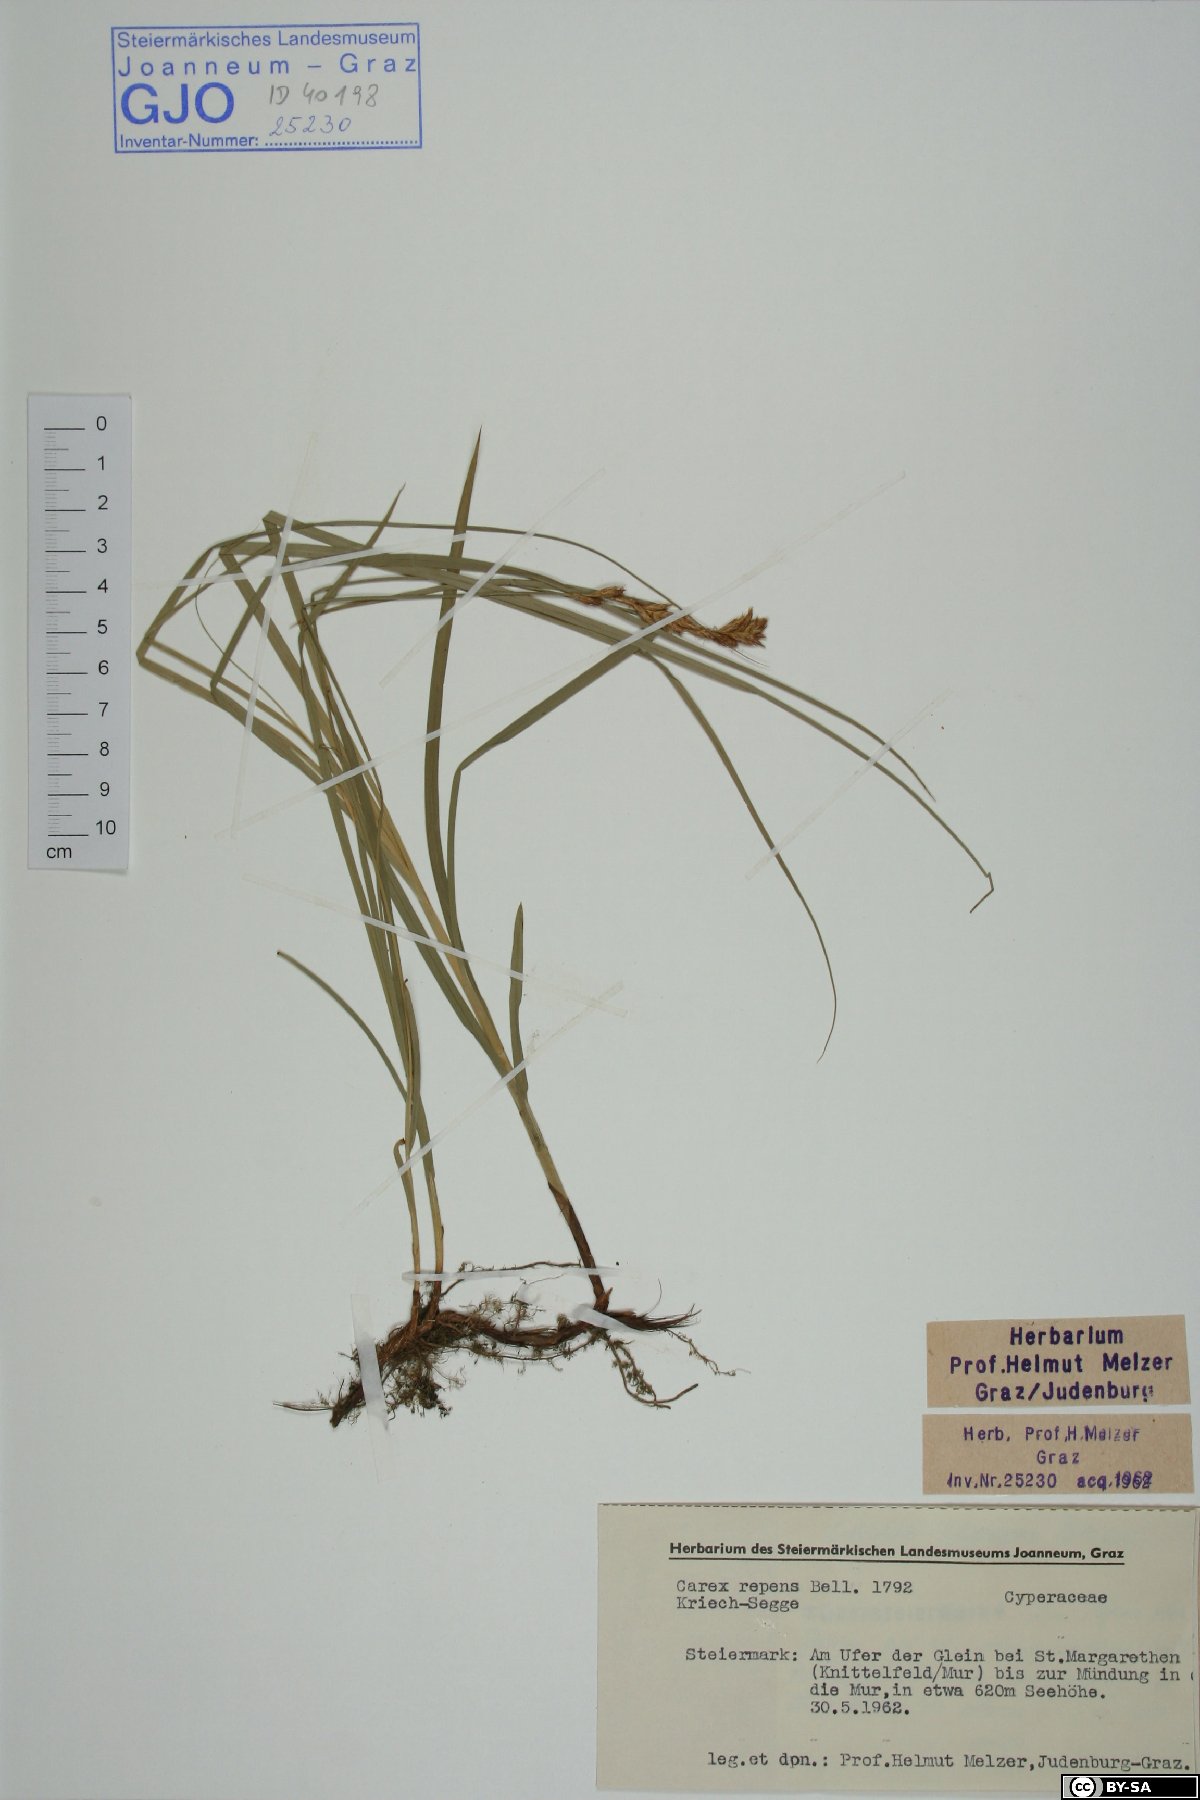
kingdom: Plantae
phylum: Tracheophyta
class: Liliopsida
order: Poales
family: Cyperaceae
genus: Carex
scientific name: Carex repens
